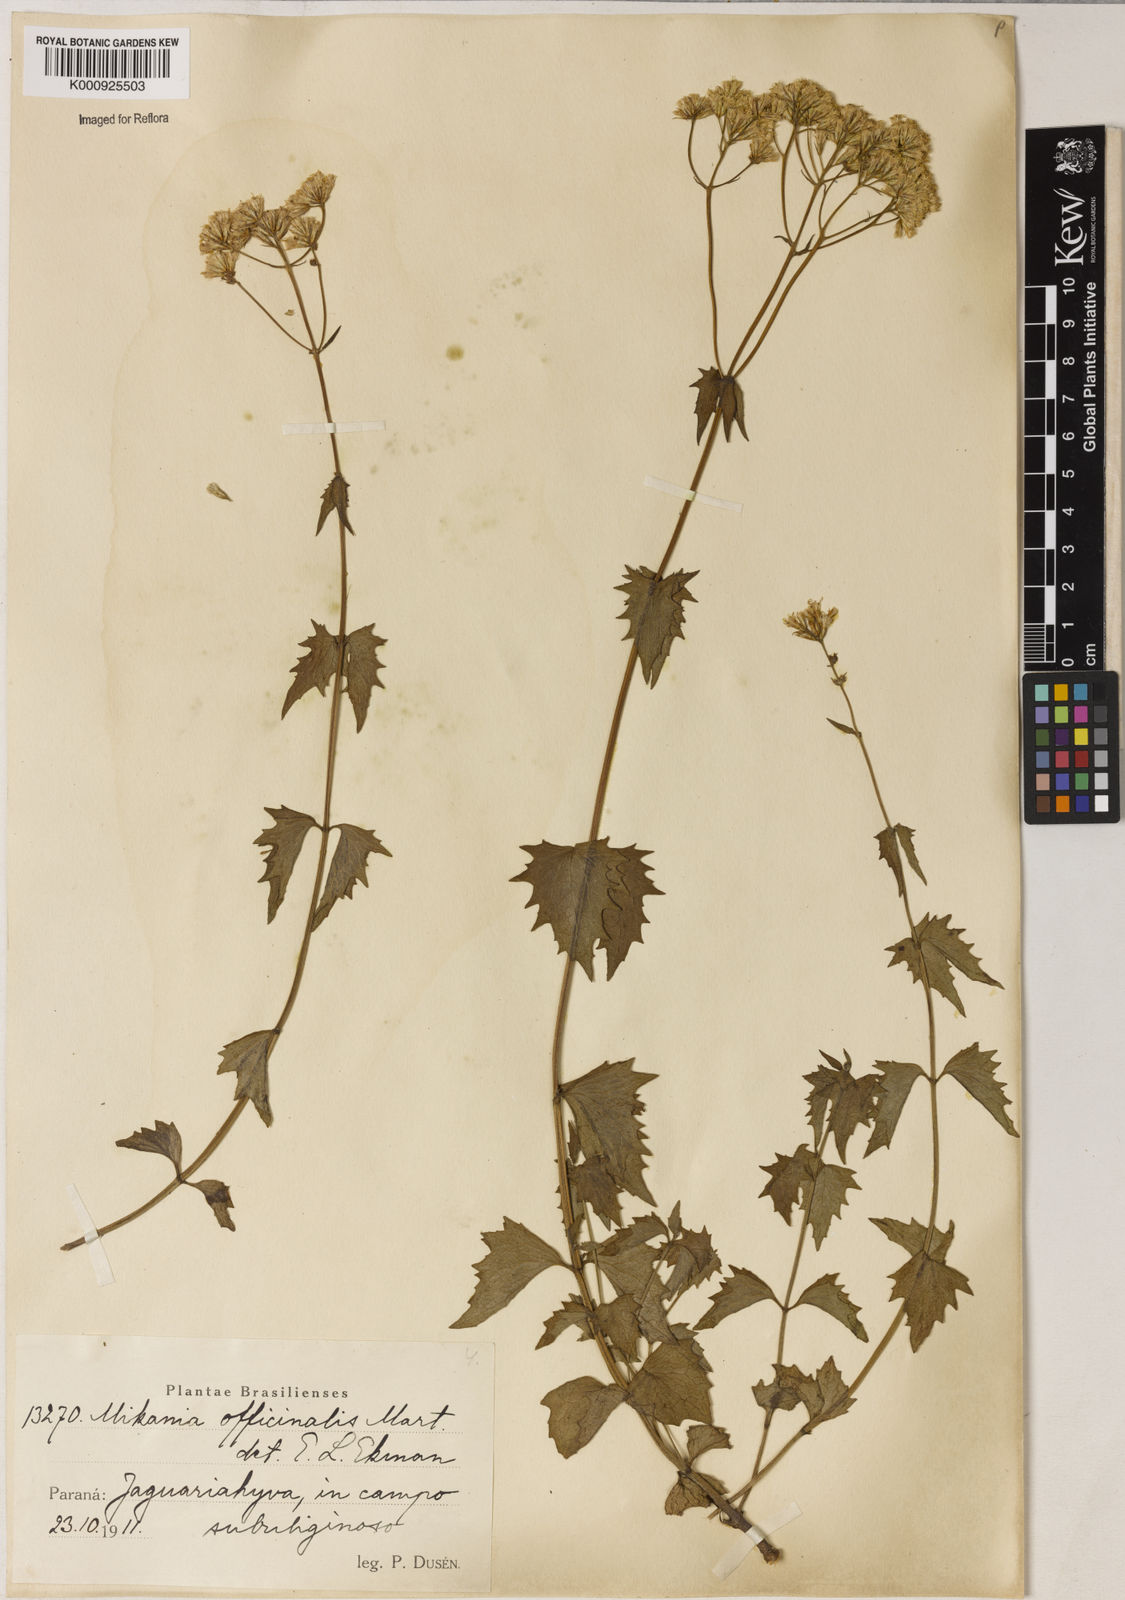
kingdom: Plantae
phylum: Tracheophyta
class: Magnoliopsida
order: Asterales
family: Asteraceae
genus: Mikania
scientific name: Mikania officinalis
